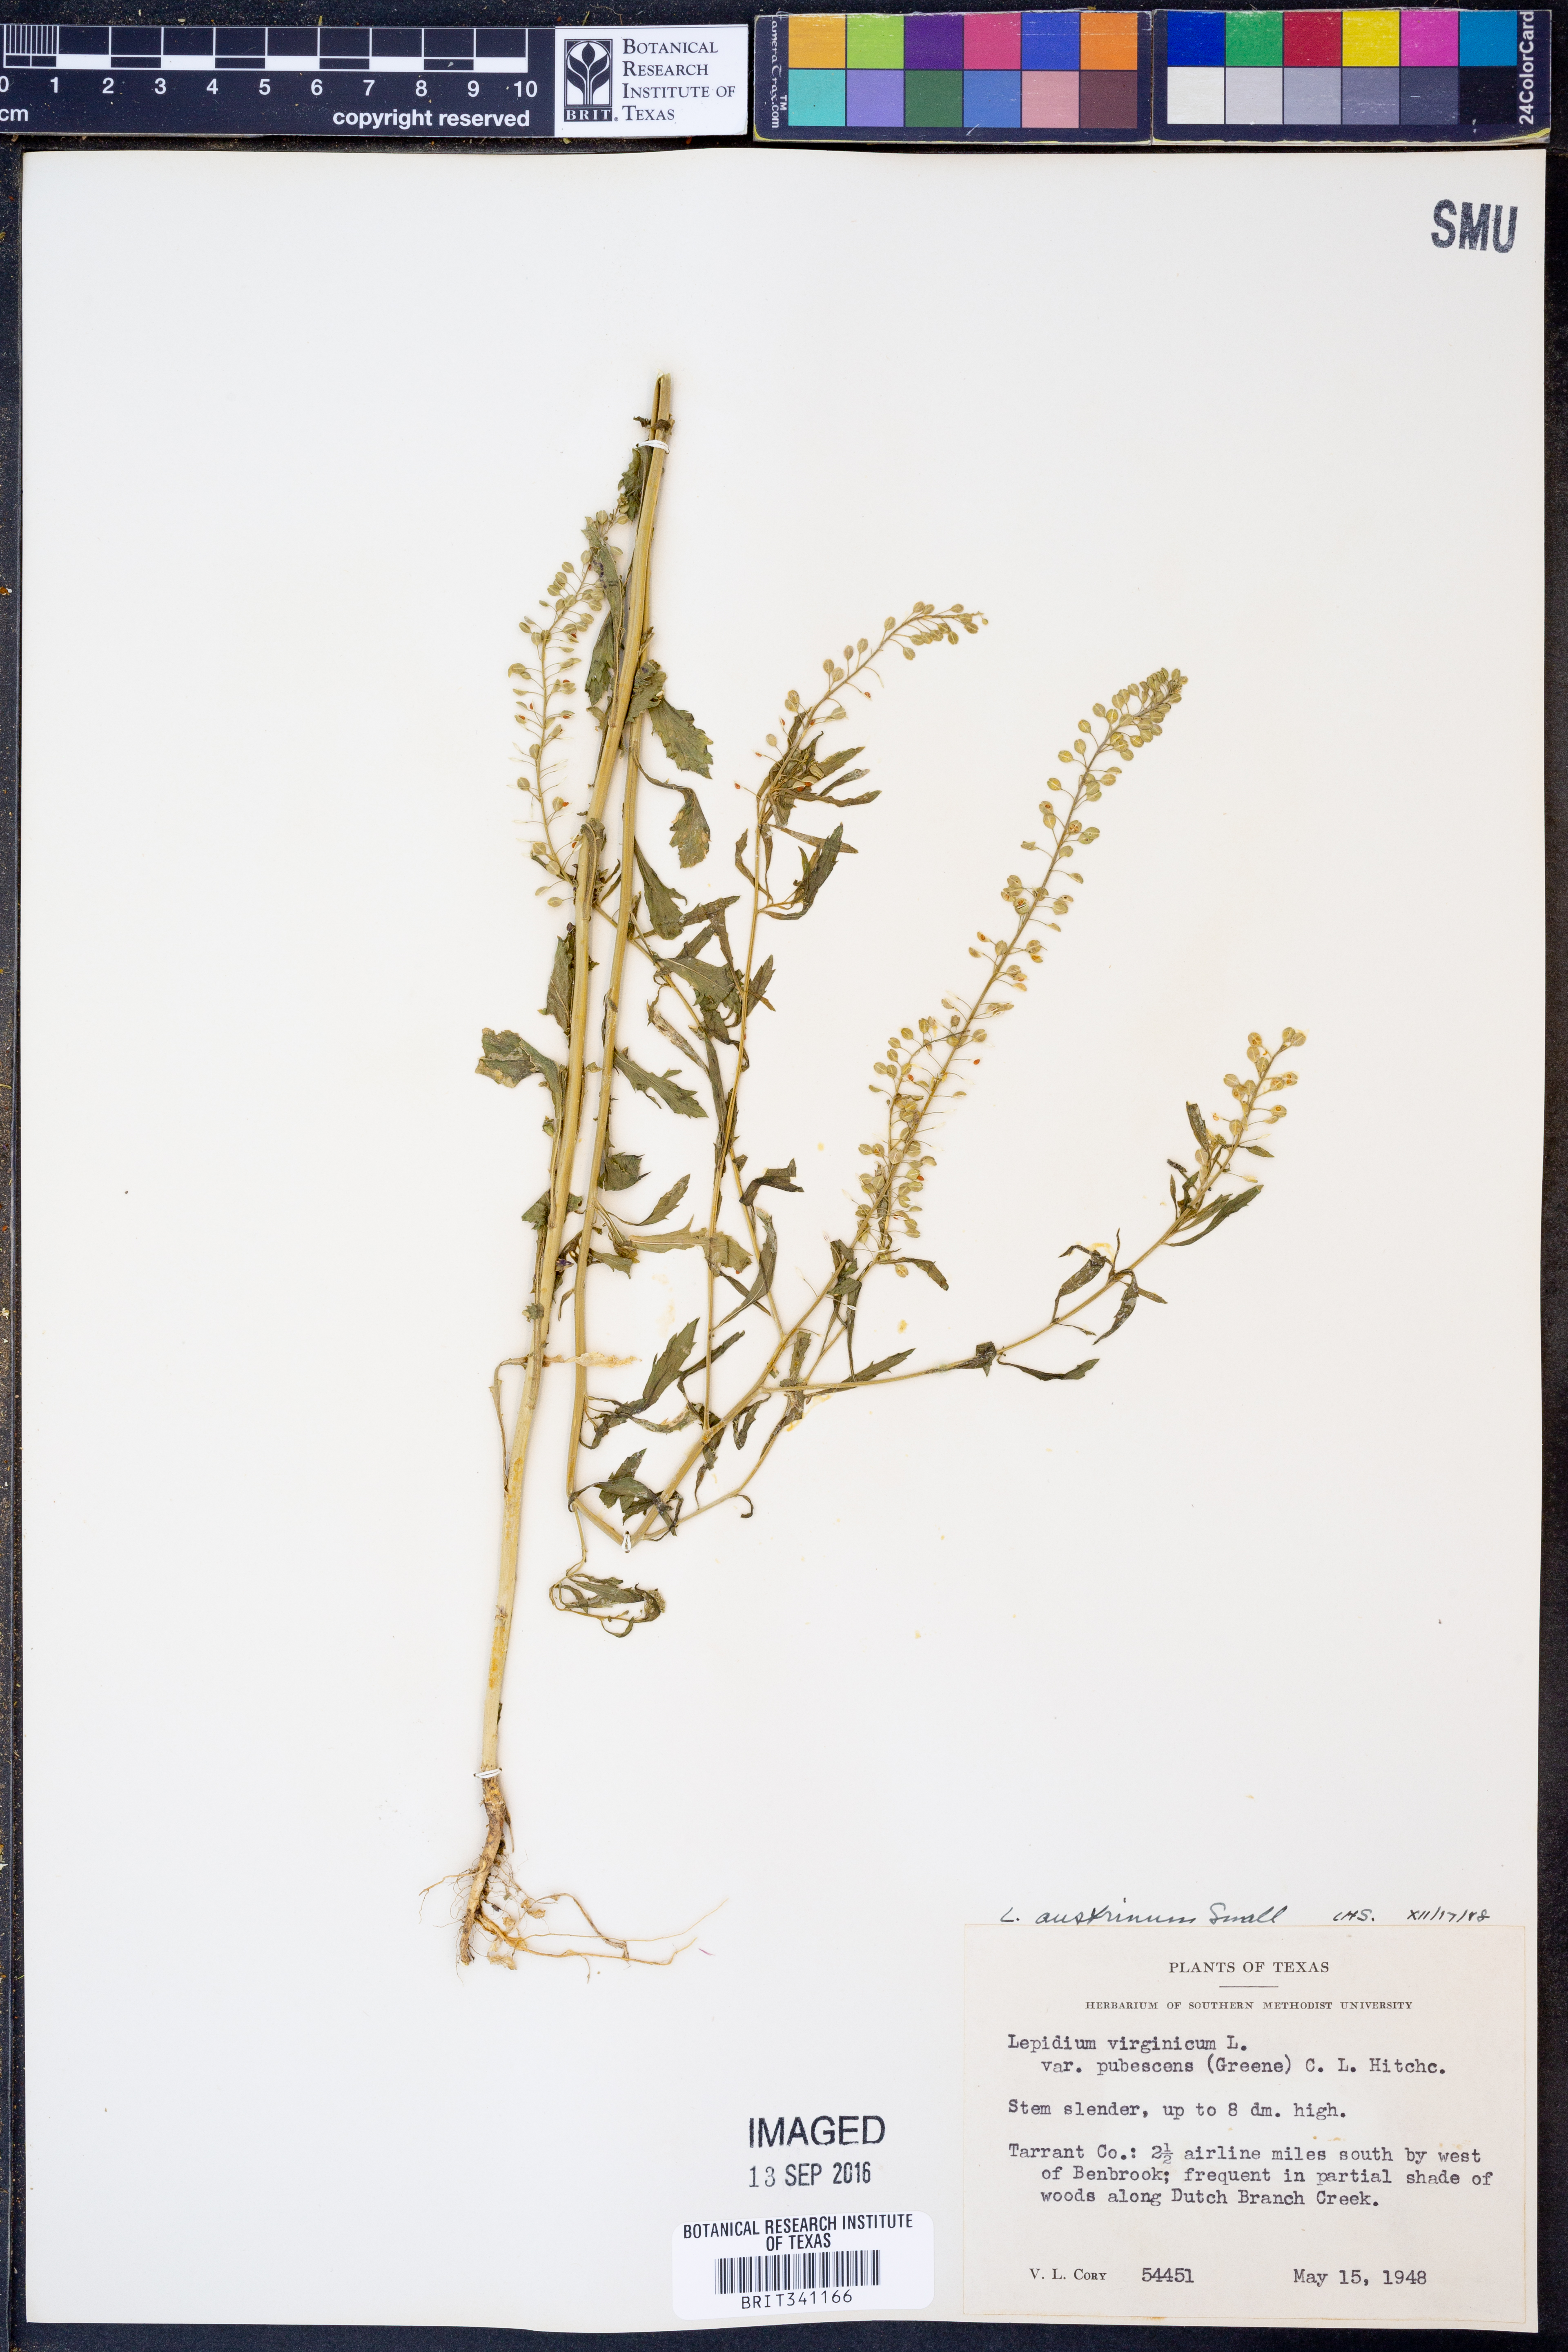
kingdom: Plantae
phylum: Tracheophyta
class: Magnoliopsida
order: Brassicales
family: Brassicaceae
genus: Lepidium
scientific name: Lepidium austrinum
